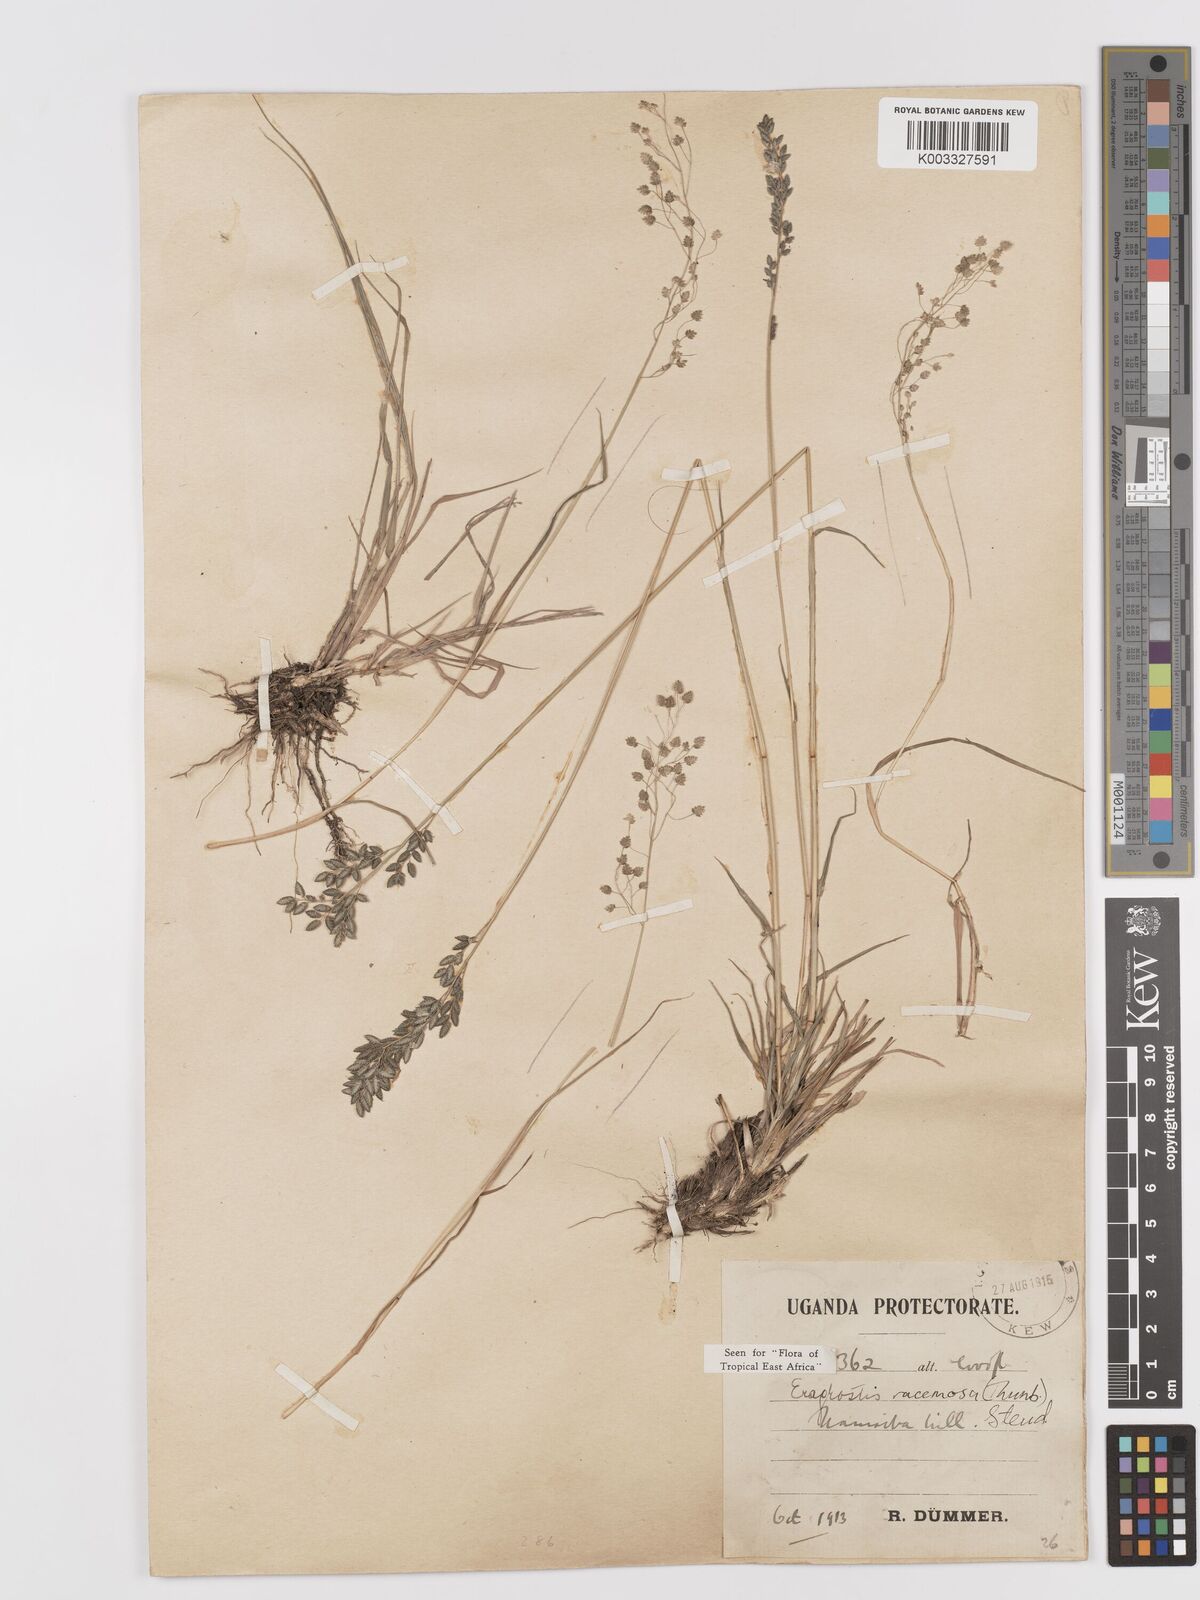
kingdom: Plantae
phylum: Tracheophyta
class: Liliopsida
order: Poales
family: Poaceae
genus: Eragrostis
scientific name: Eragrostis racemosa
